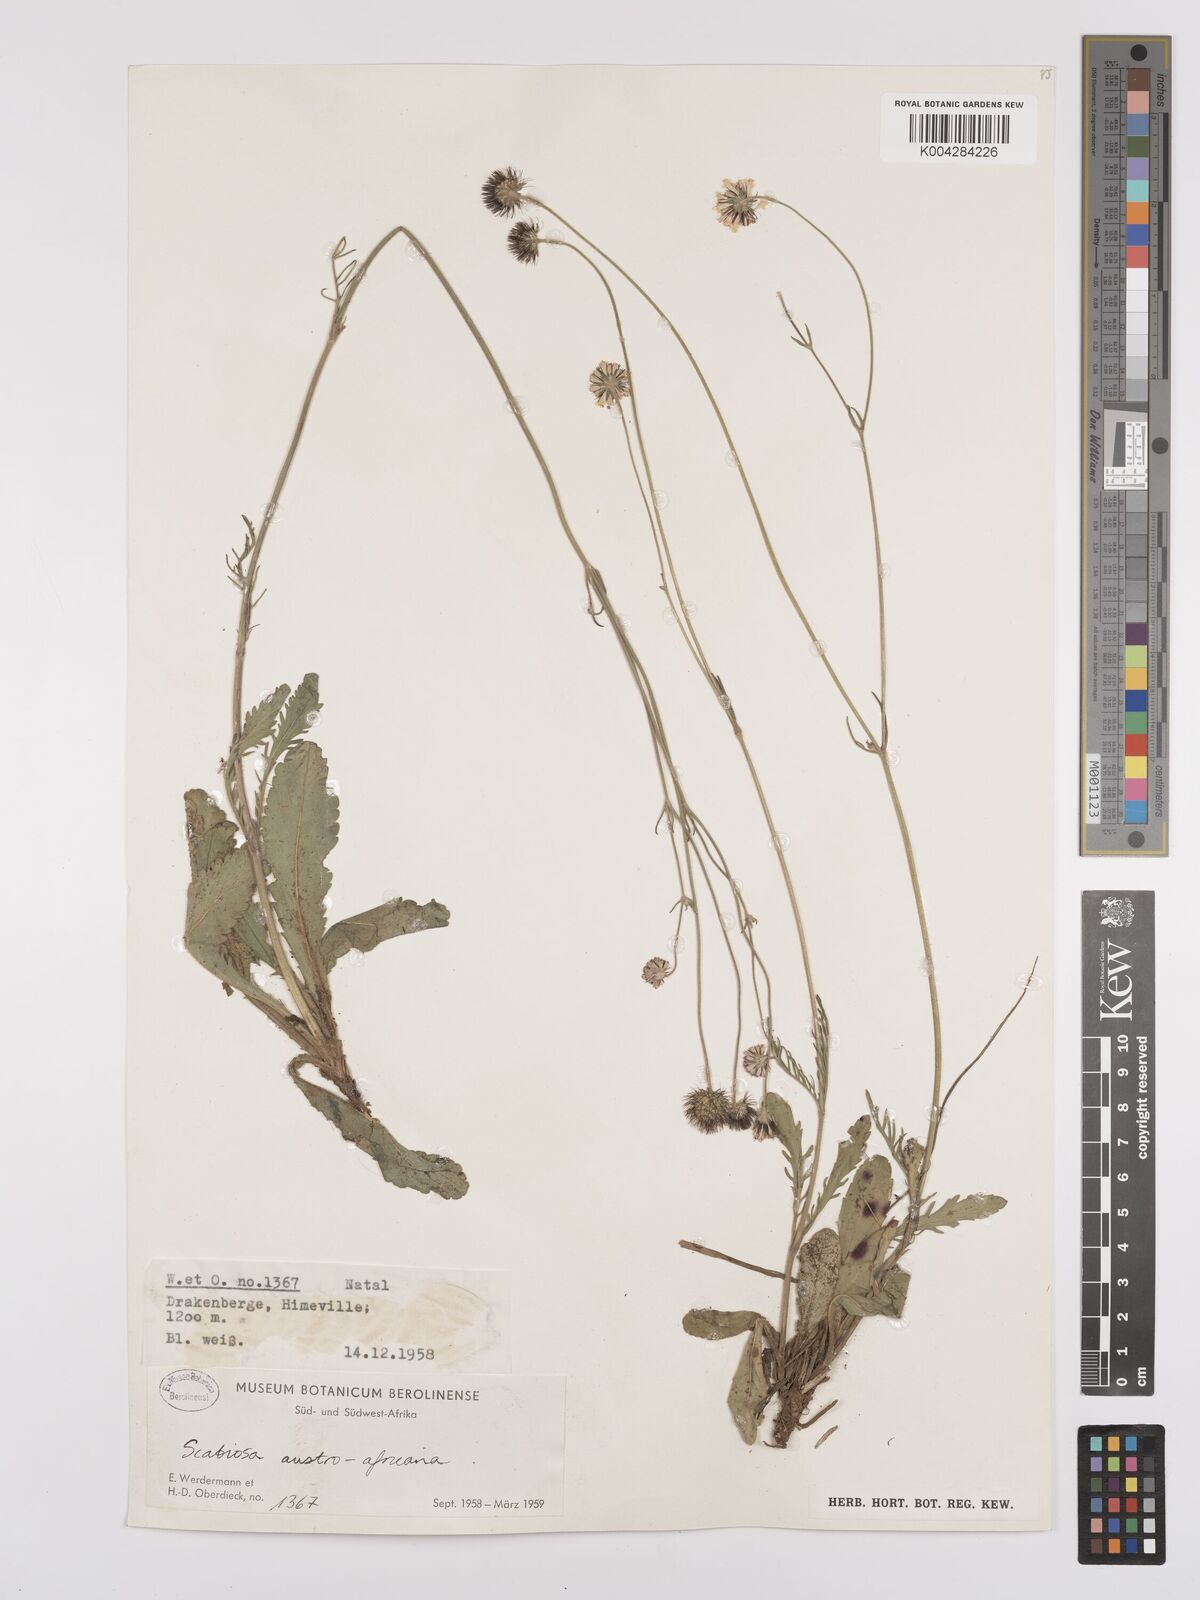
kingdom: Plantae
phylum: Tracheophyta
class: Magnoliopsida
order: Dipsacales
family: Caprifoliaceae
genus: Scabiosa
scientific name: Scabiosa columbaria
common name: Small scabious
